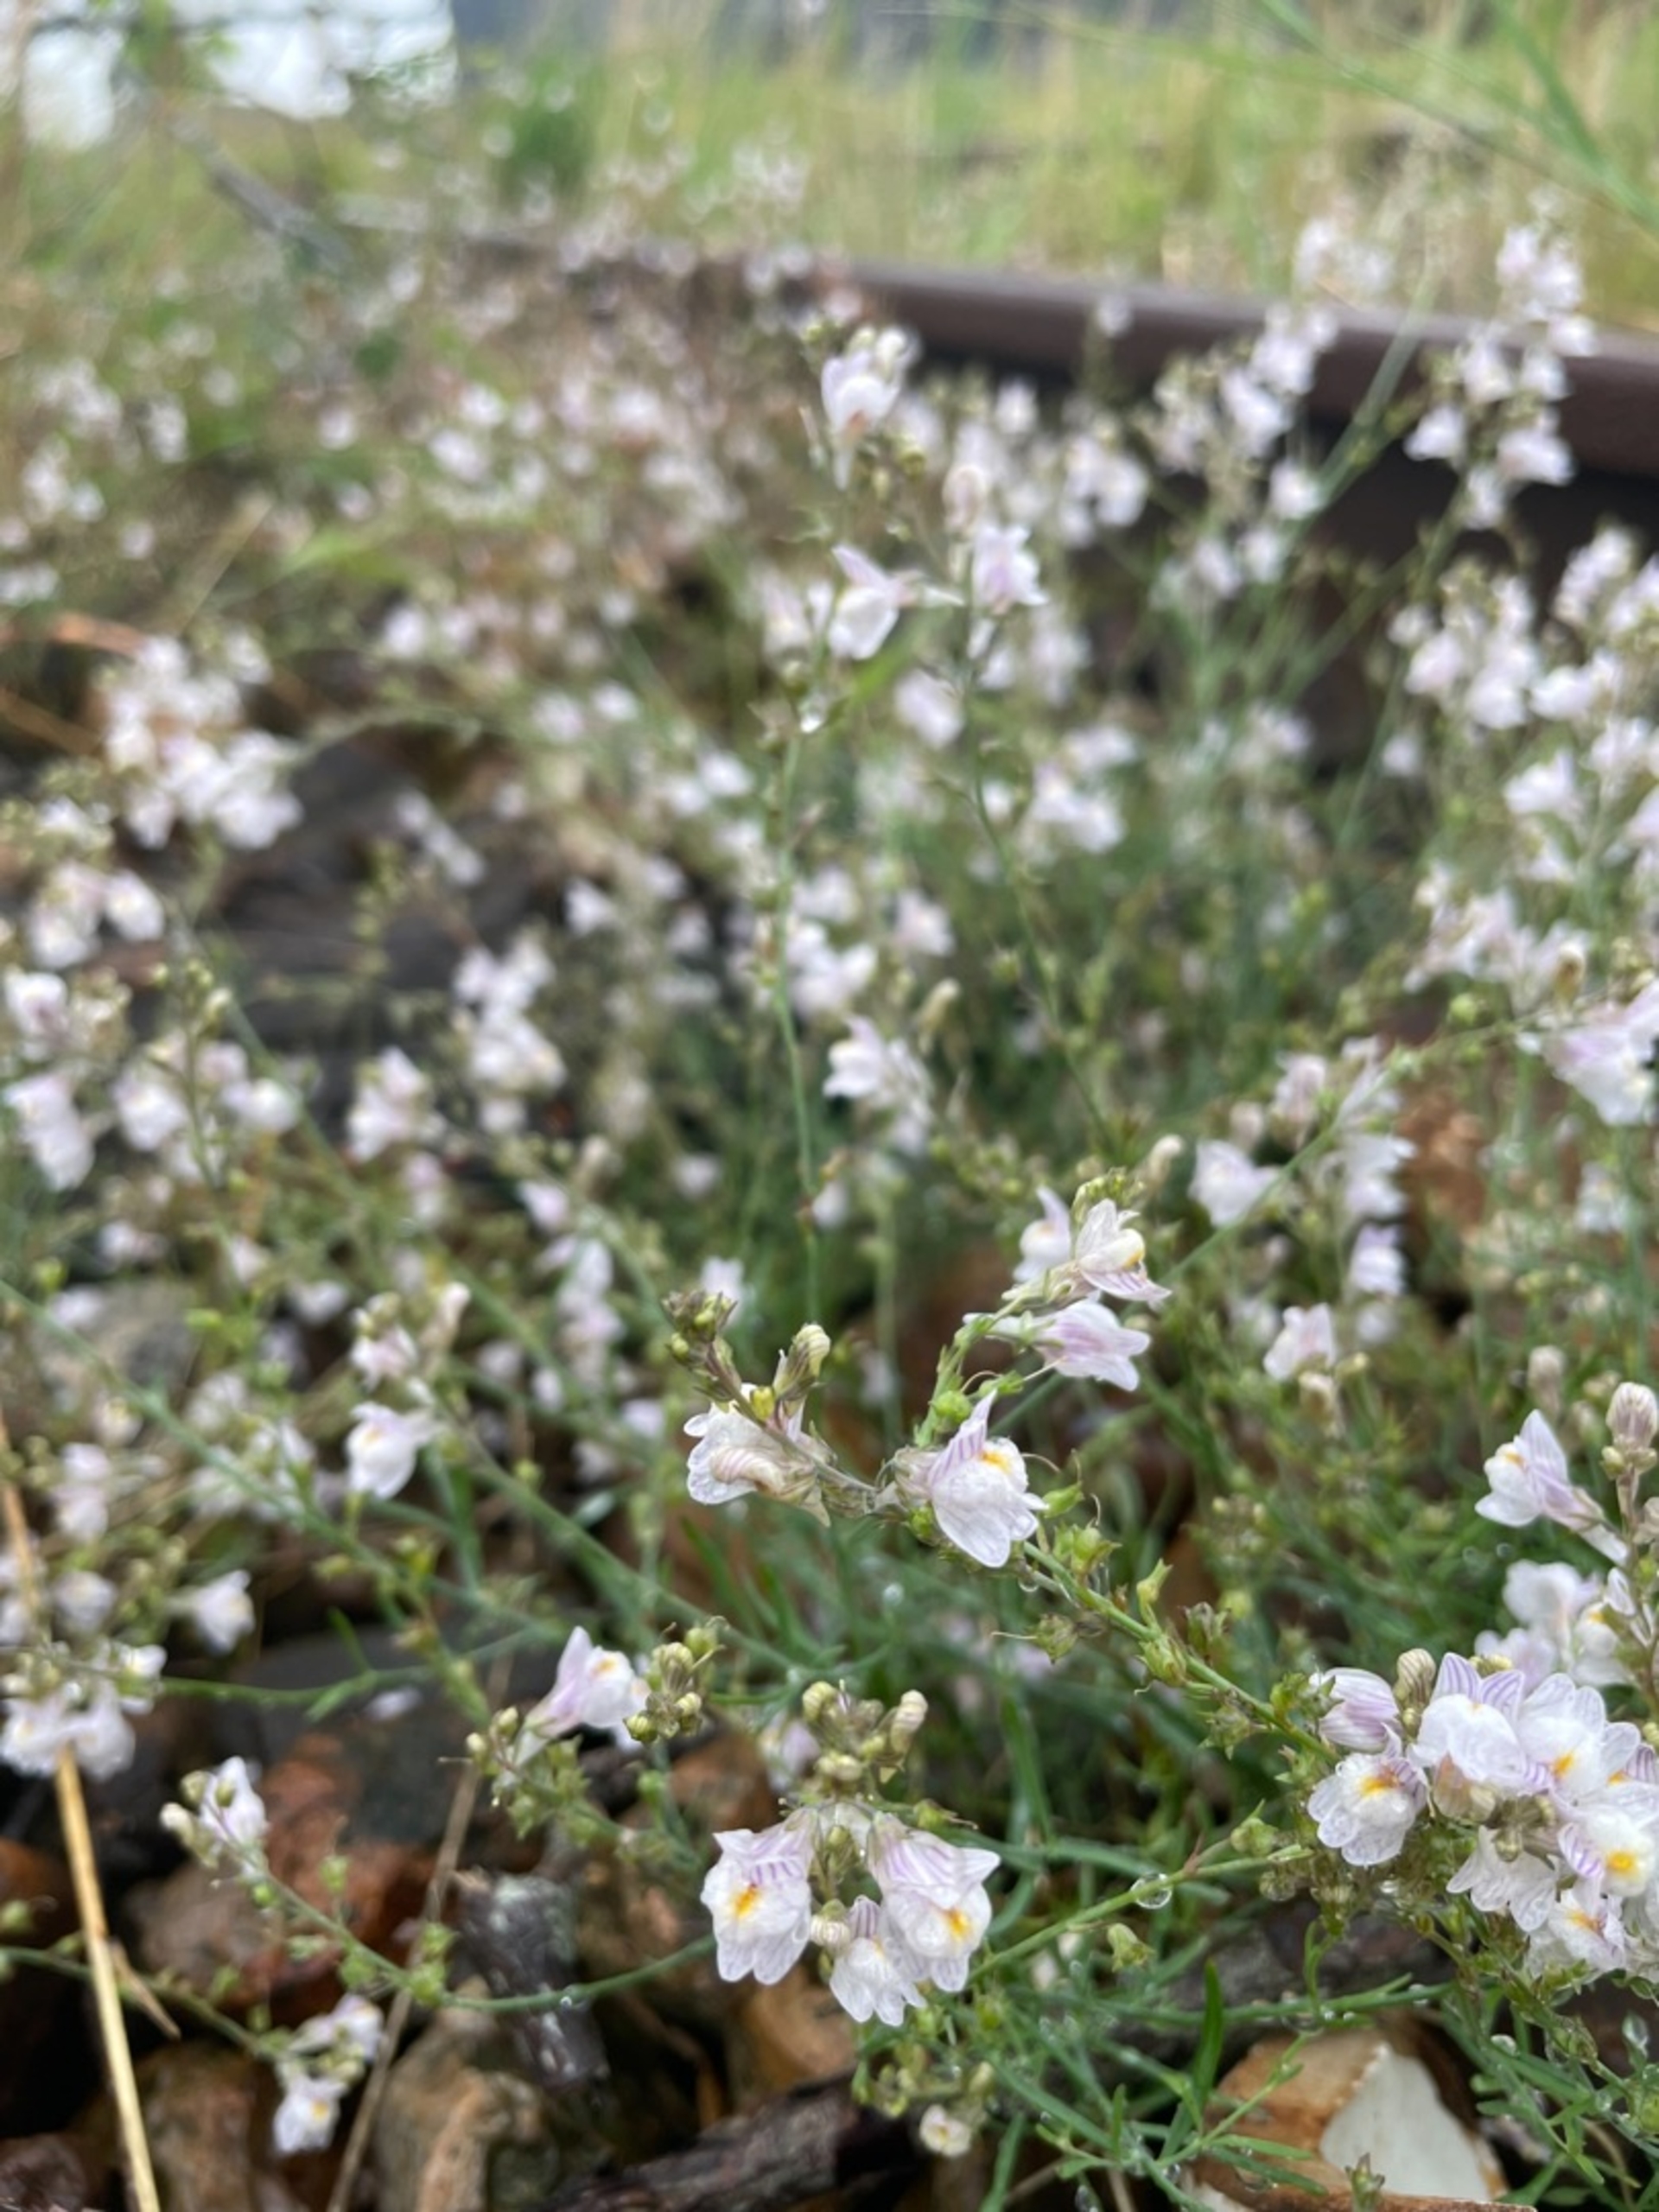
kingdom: Plantae
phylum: Tracheophyta
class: Magnoliopsida
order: Lamiales
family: Plantaginaceae
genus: Linaria
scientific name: Linaria repens
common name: Stribet torskemund
